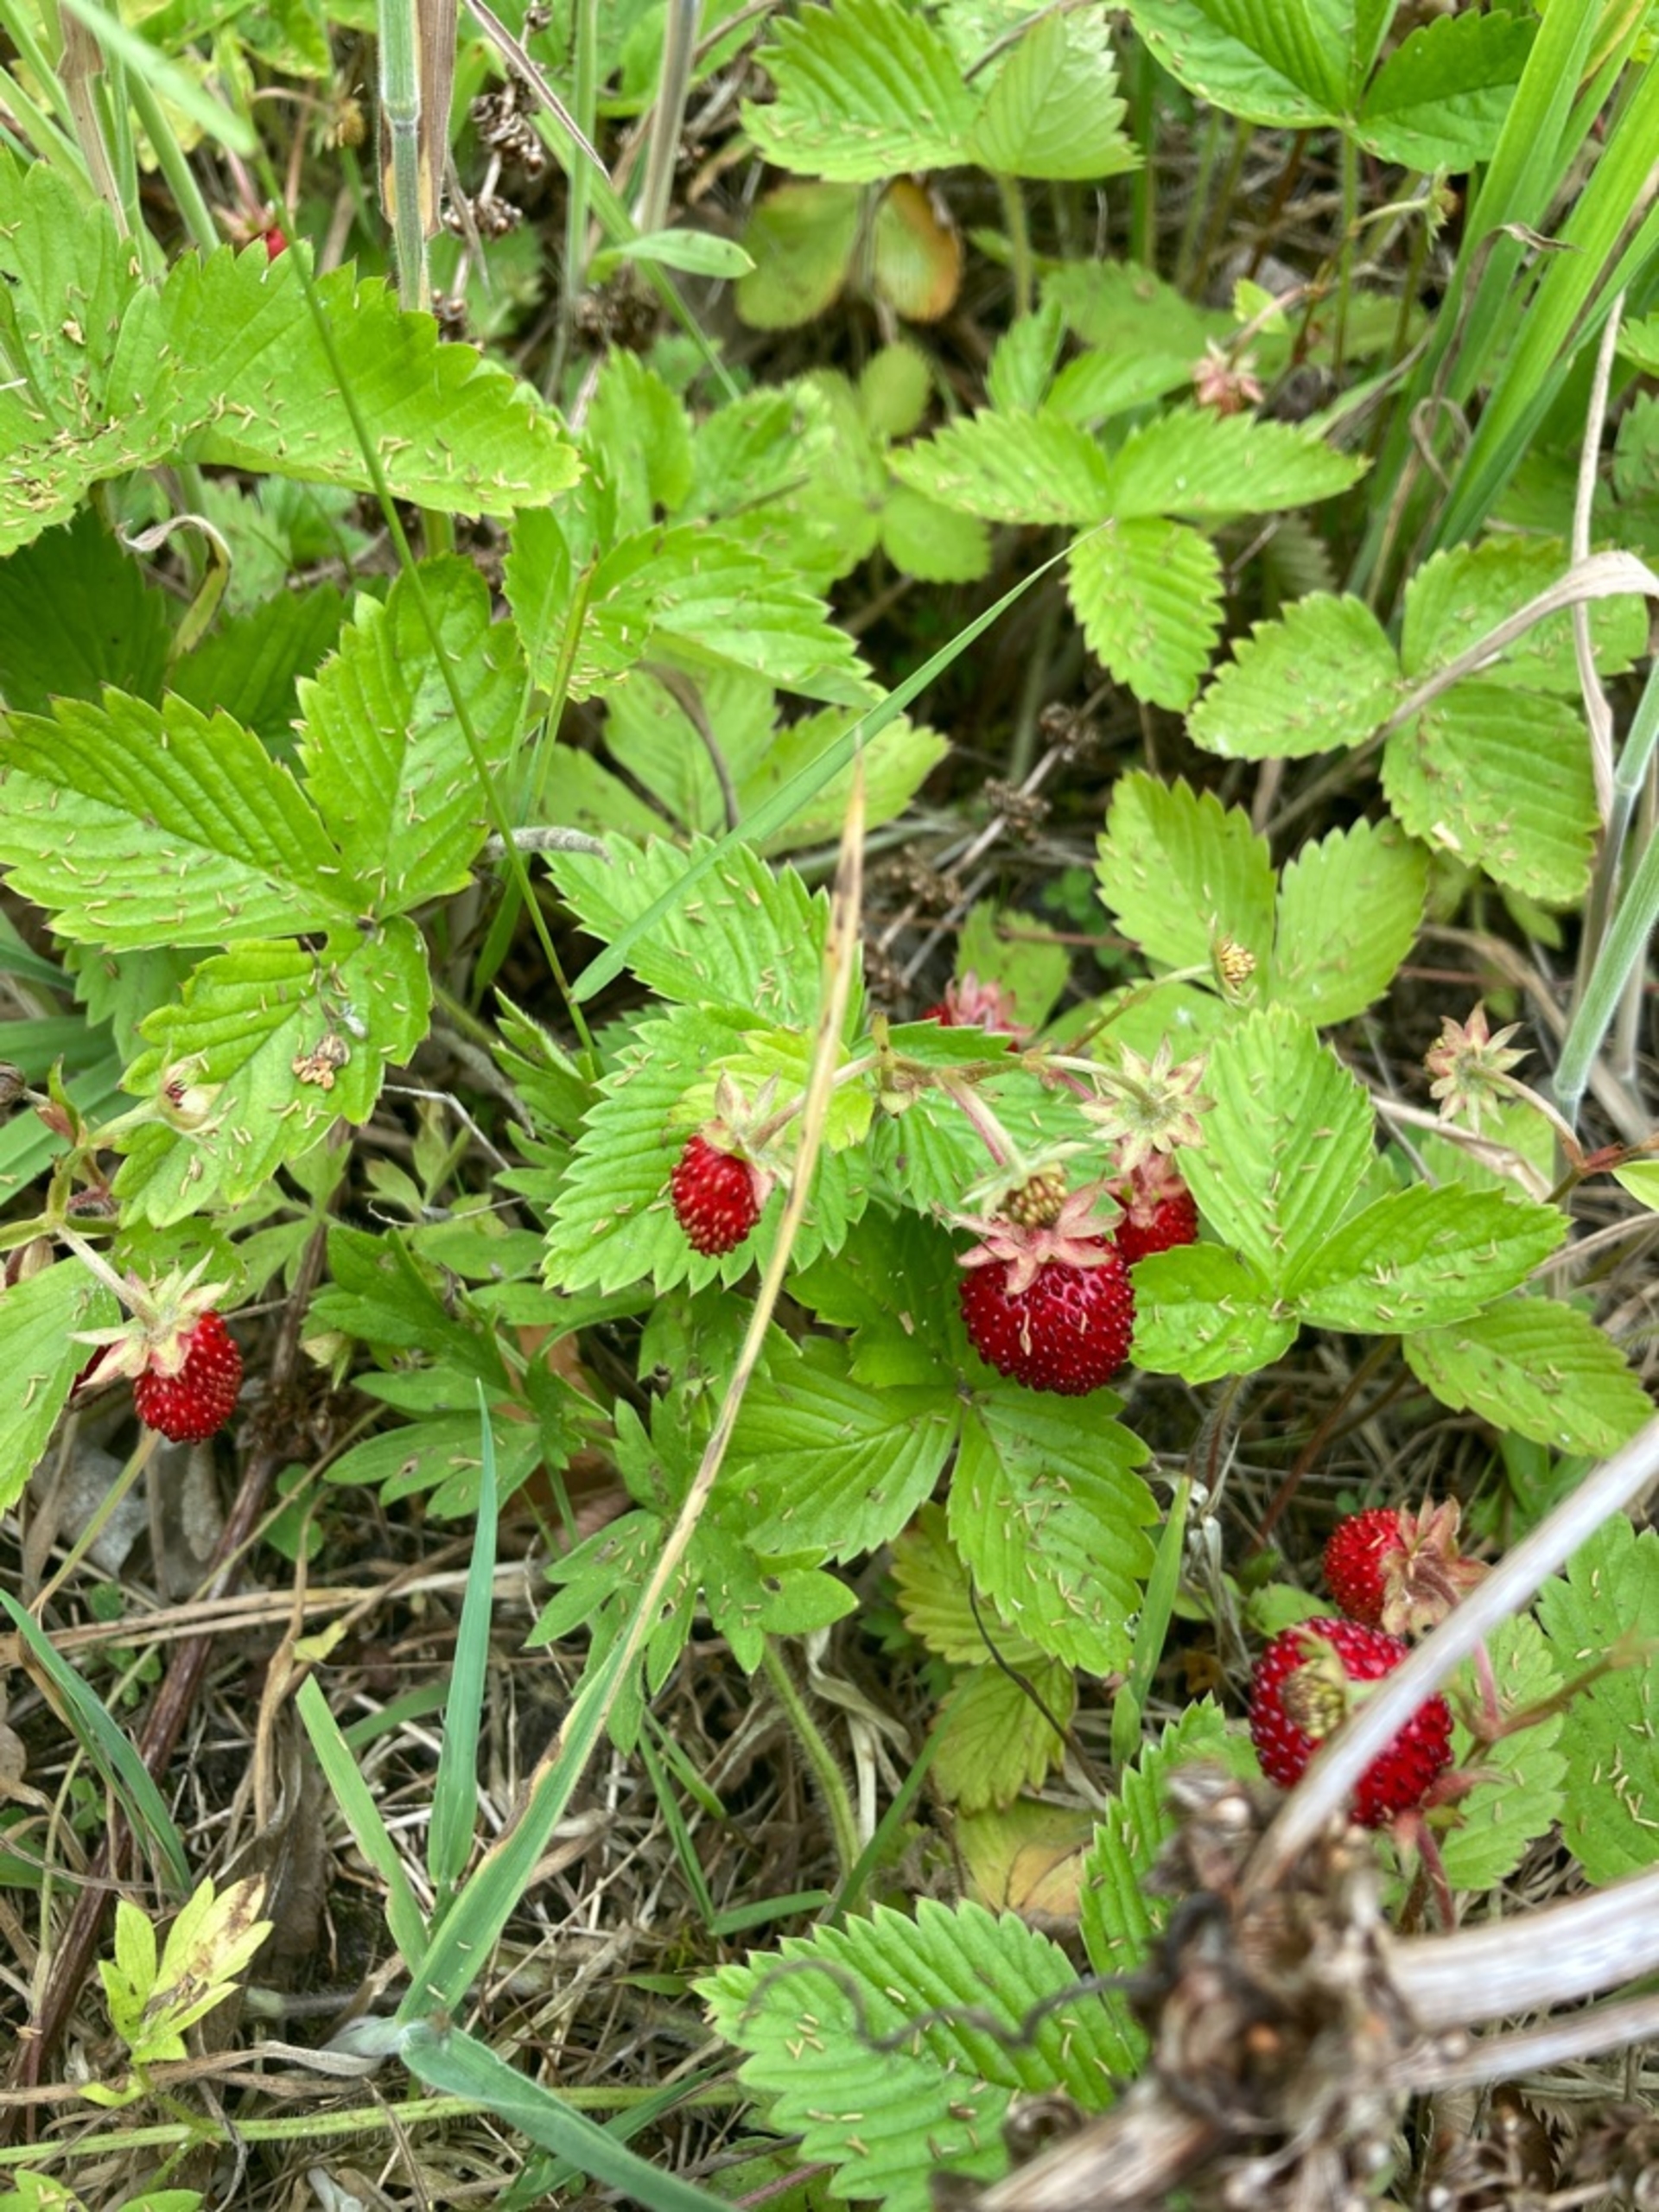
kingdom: Plantae
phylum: Tracheophyta
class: Magnoliopsida
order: Rosales
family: Rosaceae
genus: Fragaria
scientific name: Fragaria vesca
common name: Skov-jordbær
